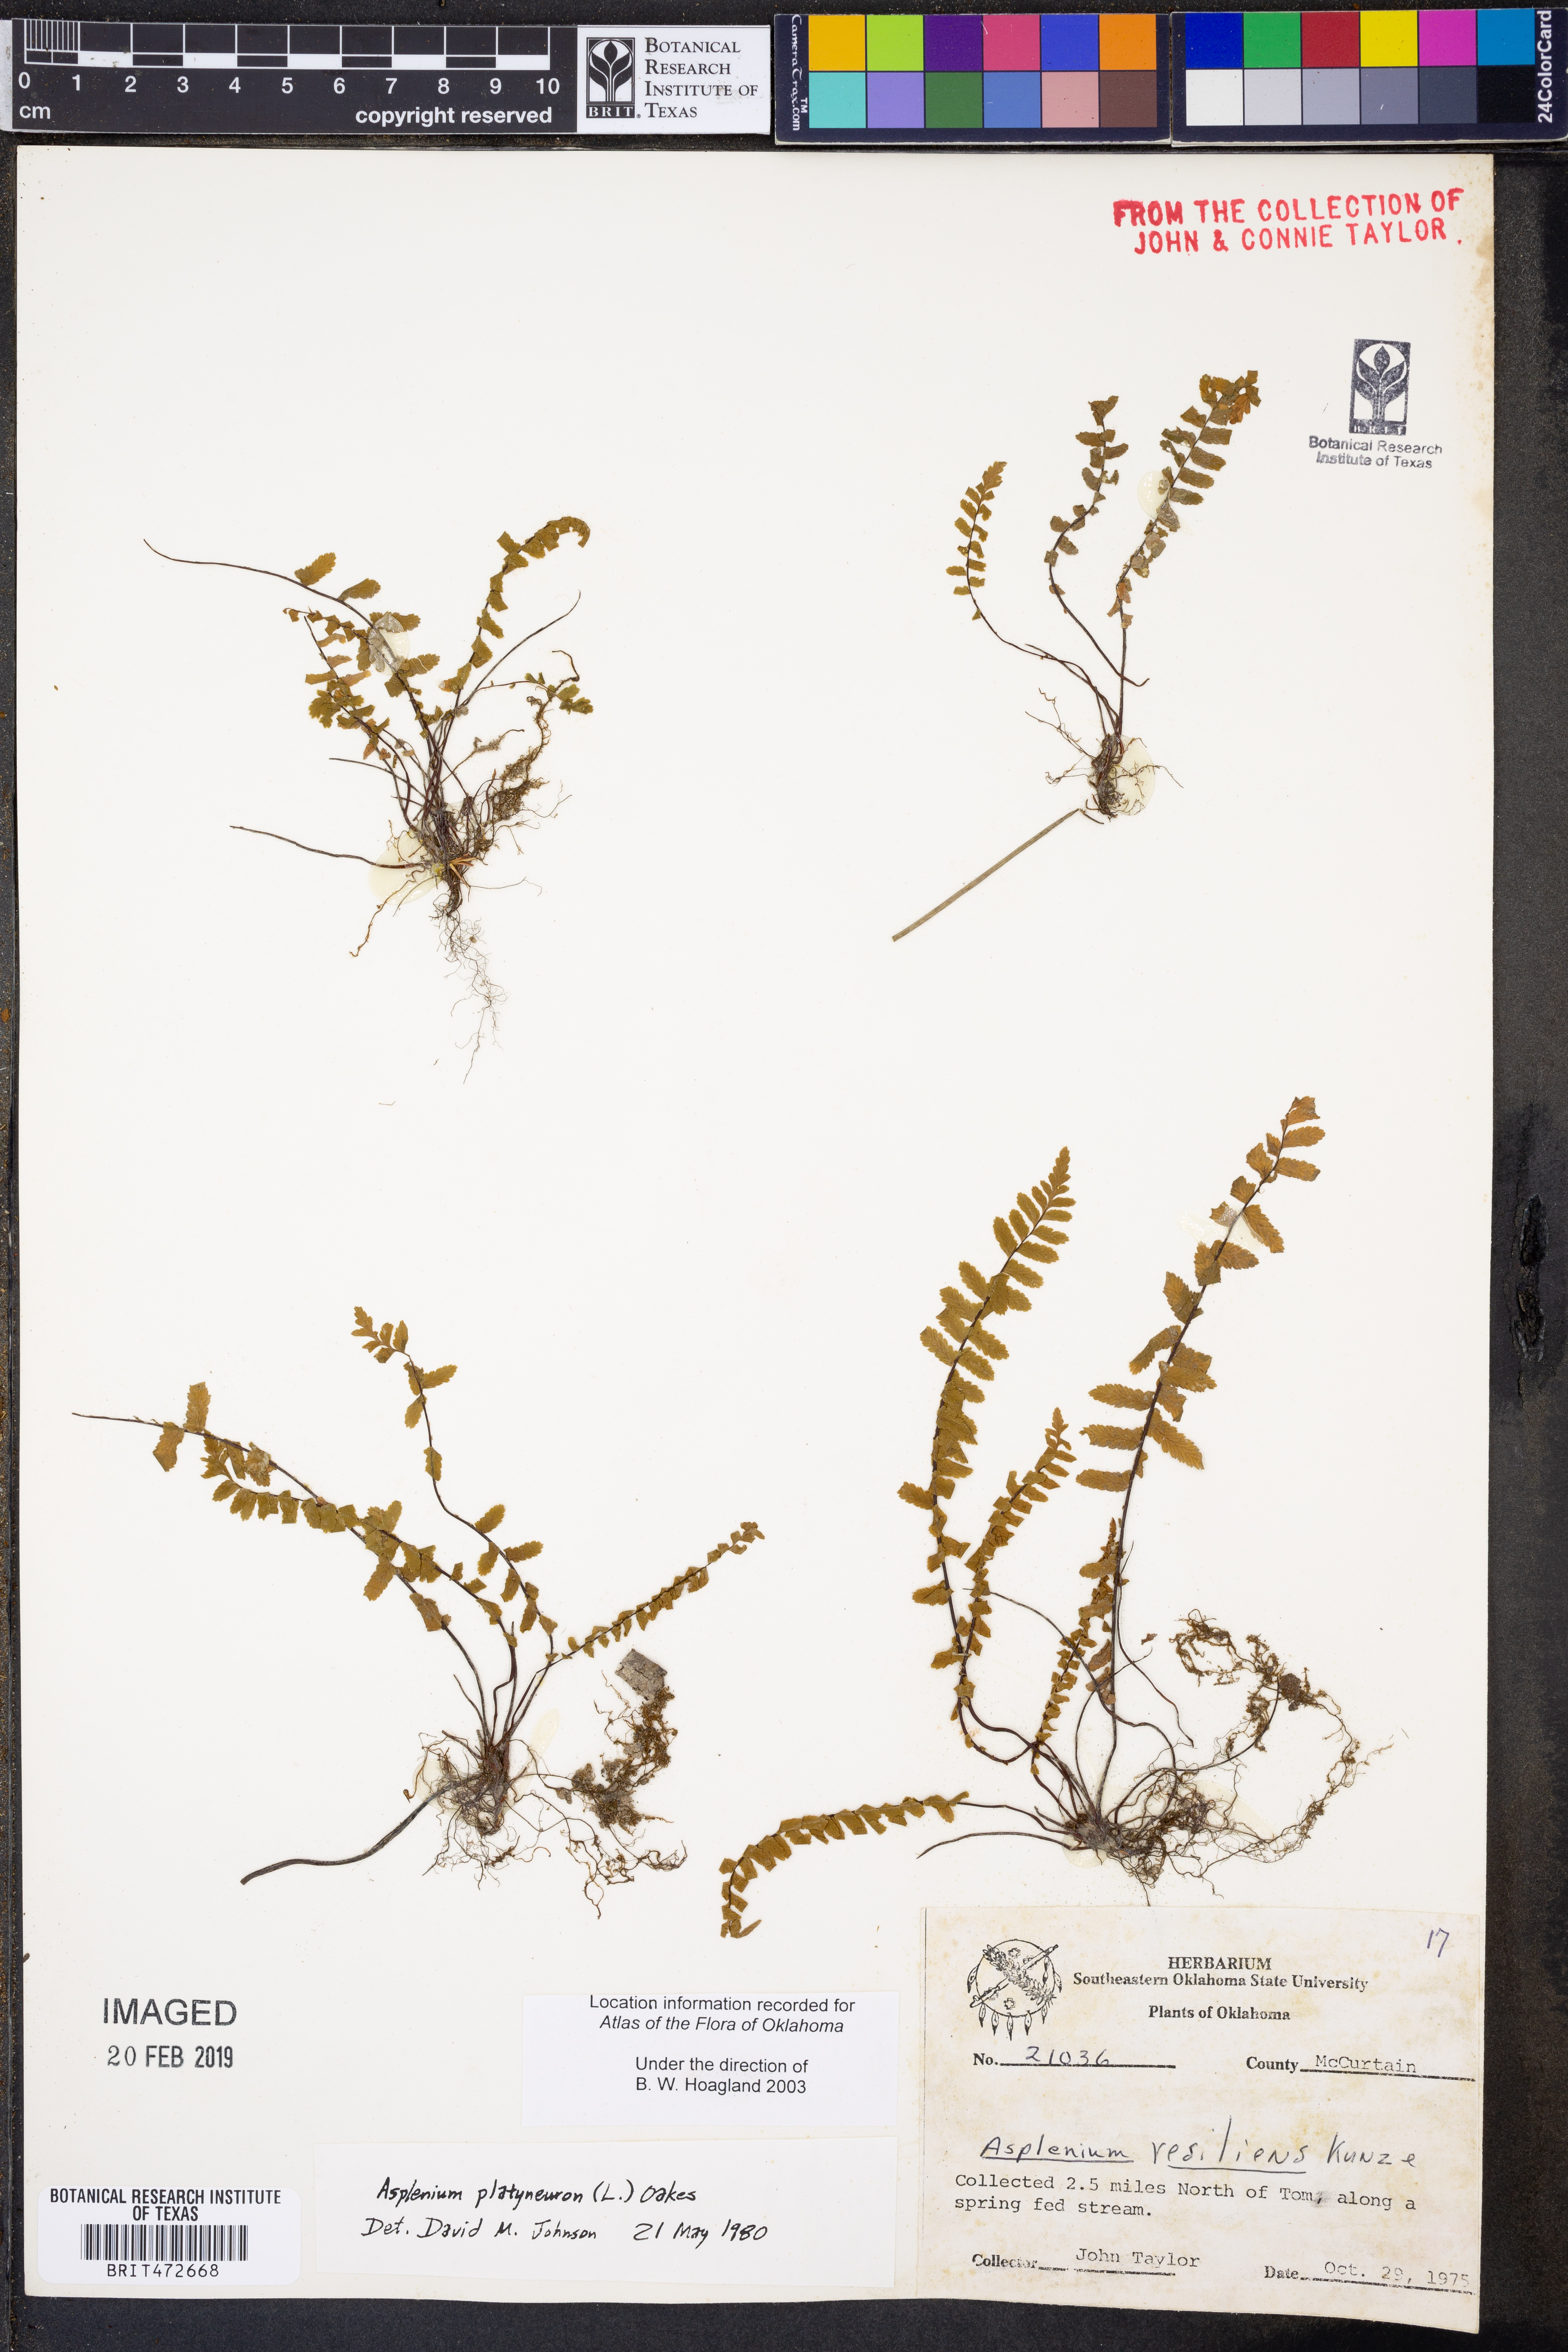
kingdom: Plantae
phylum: Tracheophyta
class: Polypodiopsida
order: Polypodiales
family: Aspleniaceae
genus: Asplenium
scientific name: Asplenium platyneuron
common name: Ebony spleenwort
